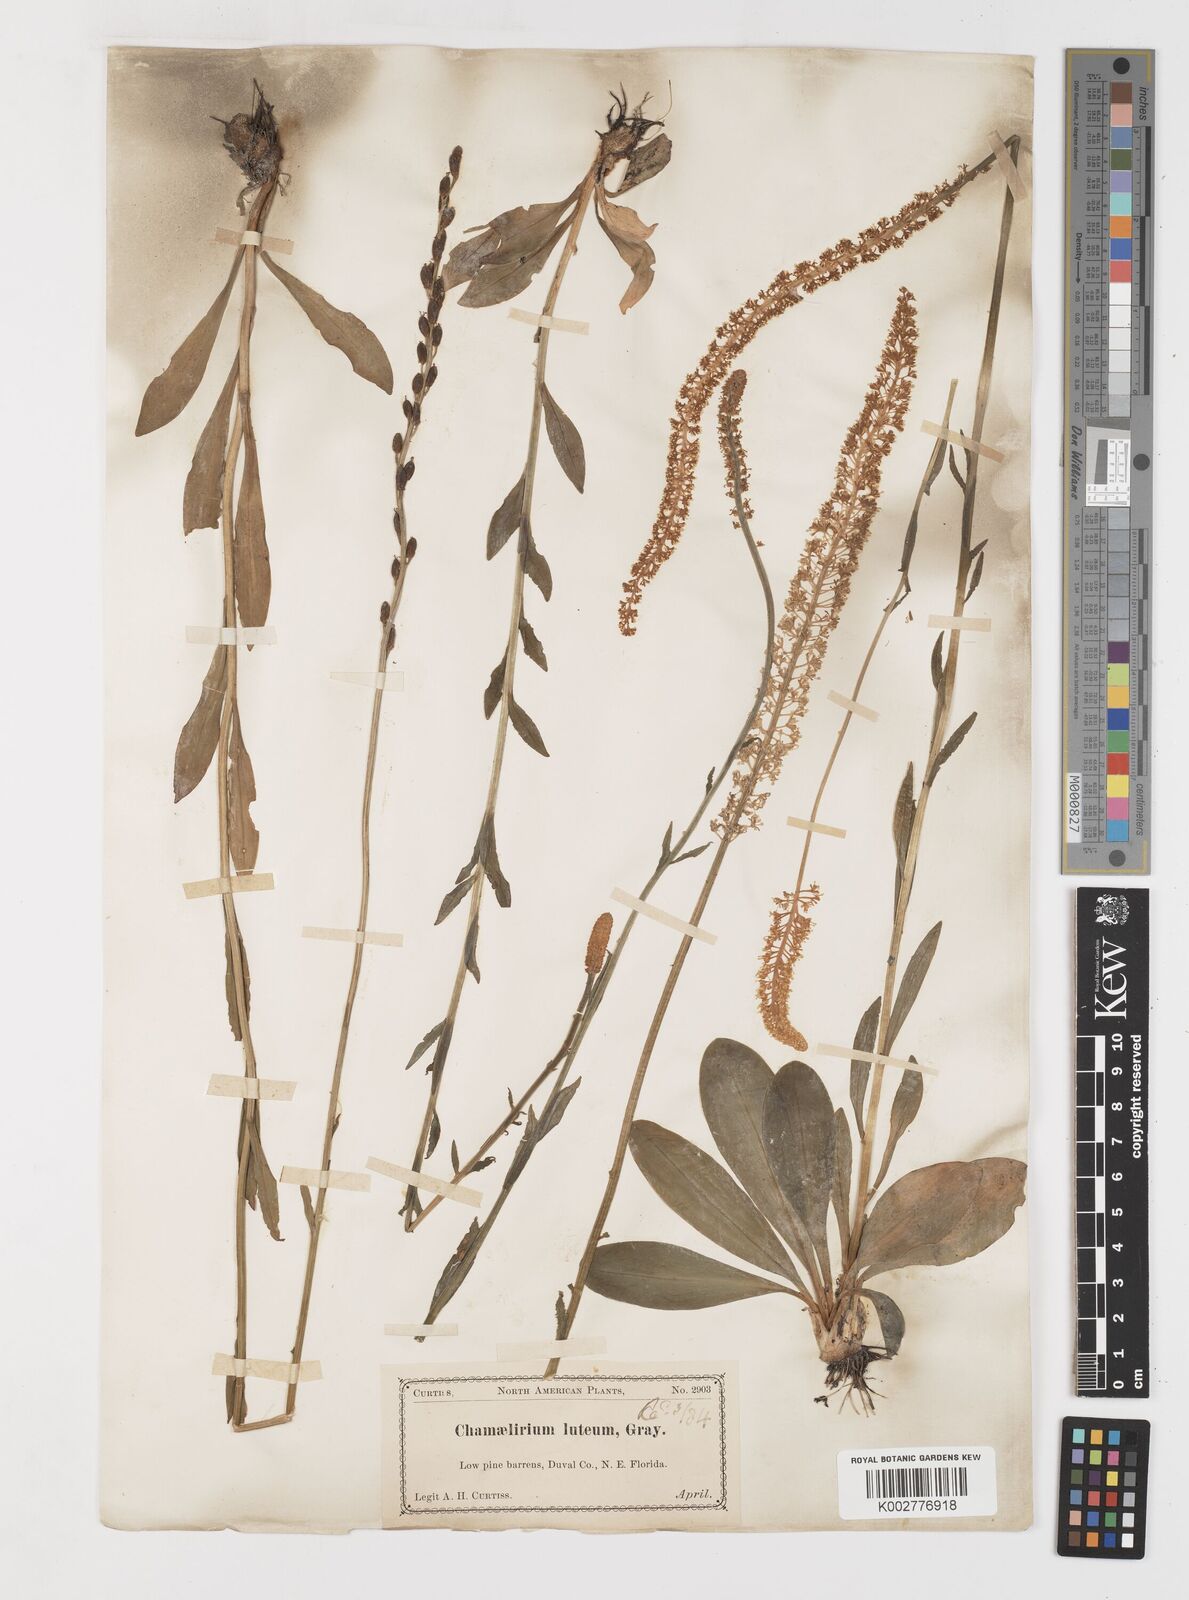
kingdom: Plantae
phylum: Tracheophyta
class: Liliopsida
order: Liliales
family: Melanthiaceae
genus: Chamaelirium
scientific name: Chamaelirium luteum
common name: Fairy-wand
